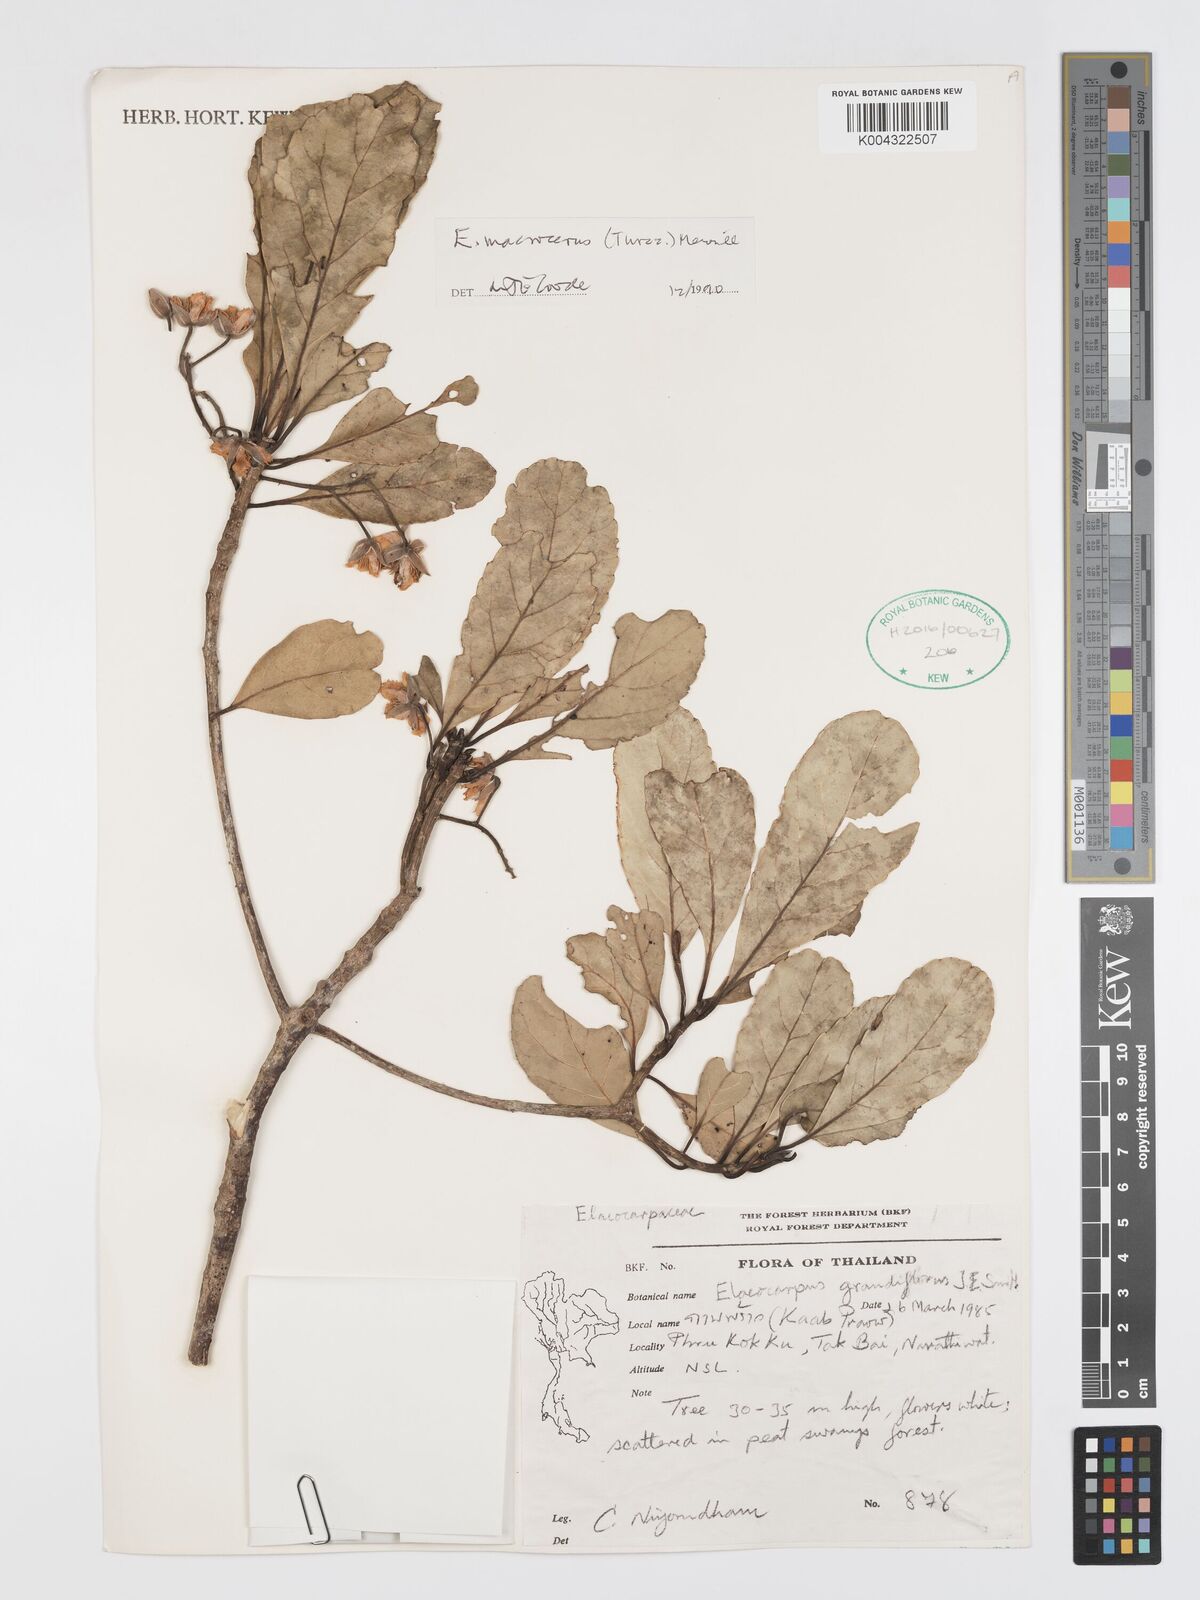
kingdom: Plantae
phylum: Tracheophyta
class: Magnoliopsida
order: Oxalidales
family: Elaeocarpaceae
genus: Elaeocarpus
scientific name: Elaeocarpus macrocerus
